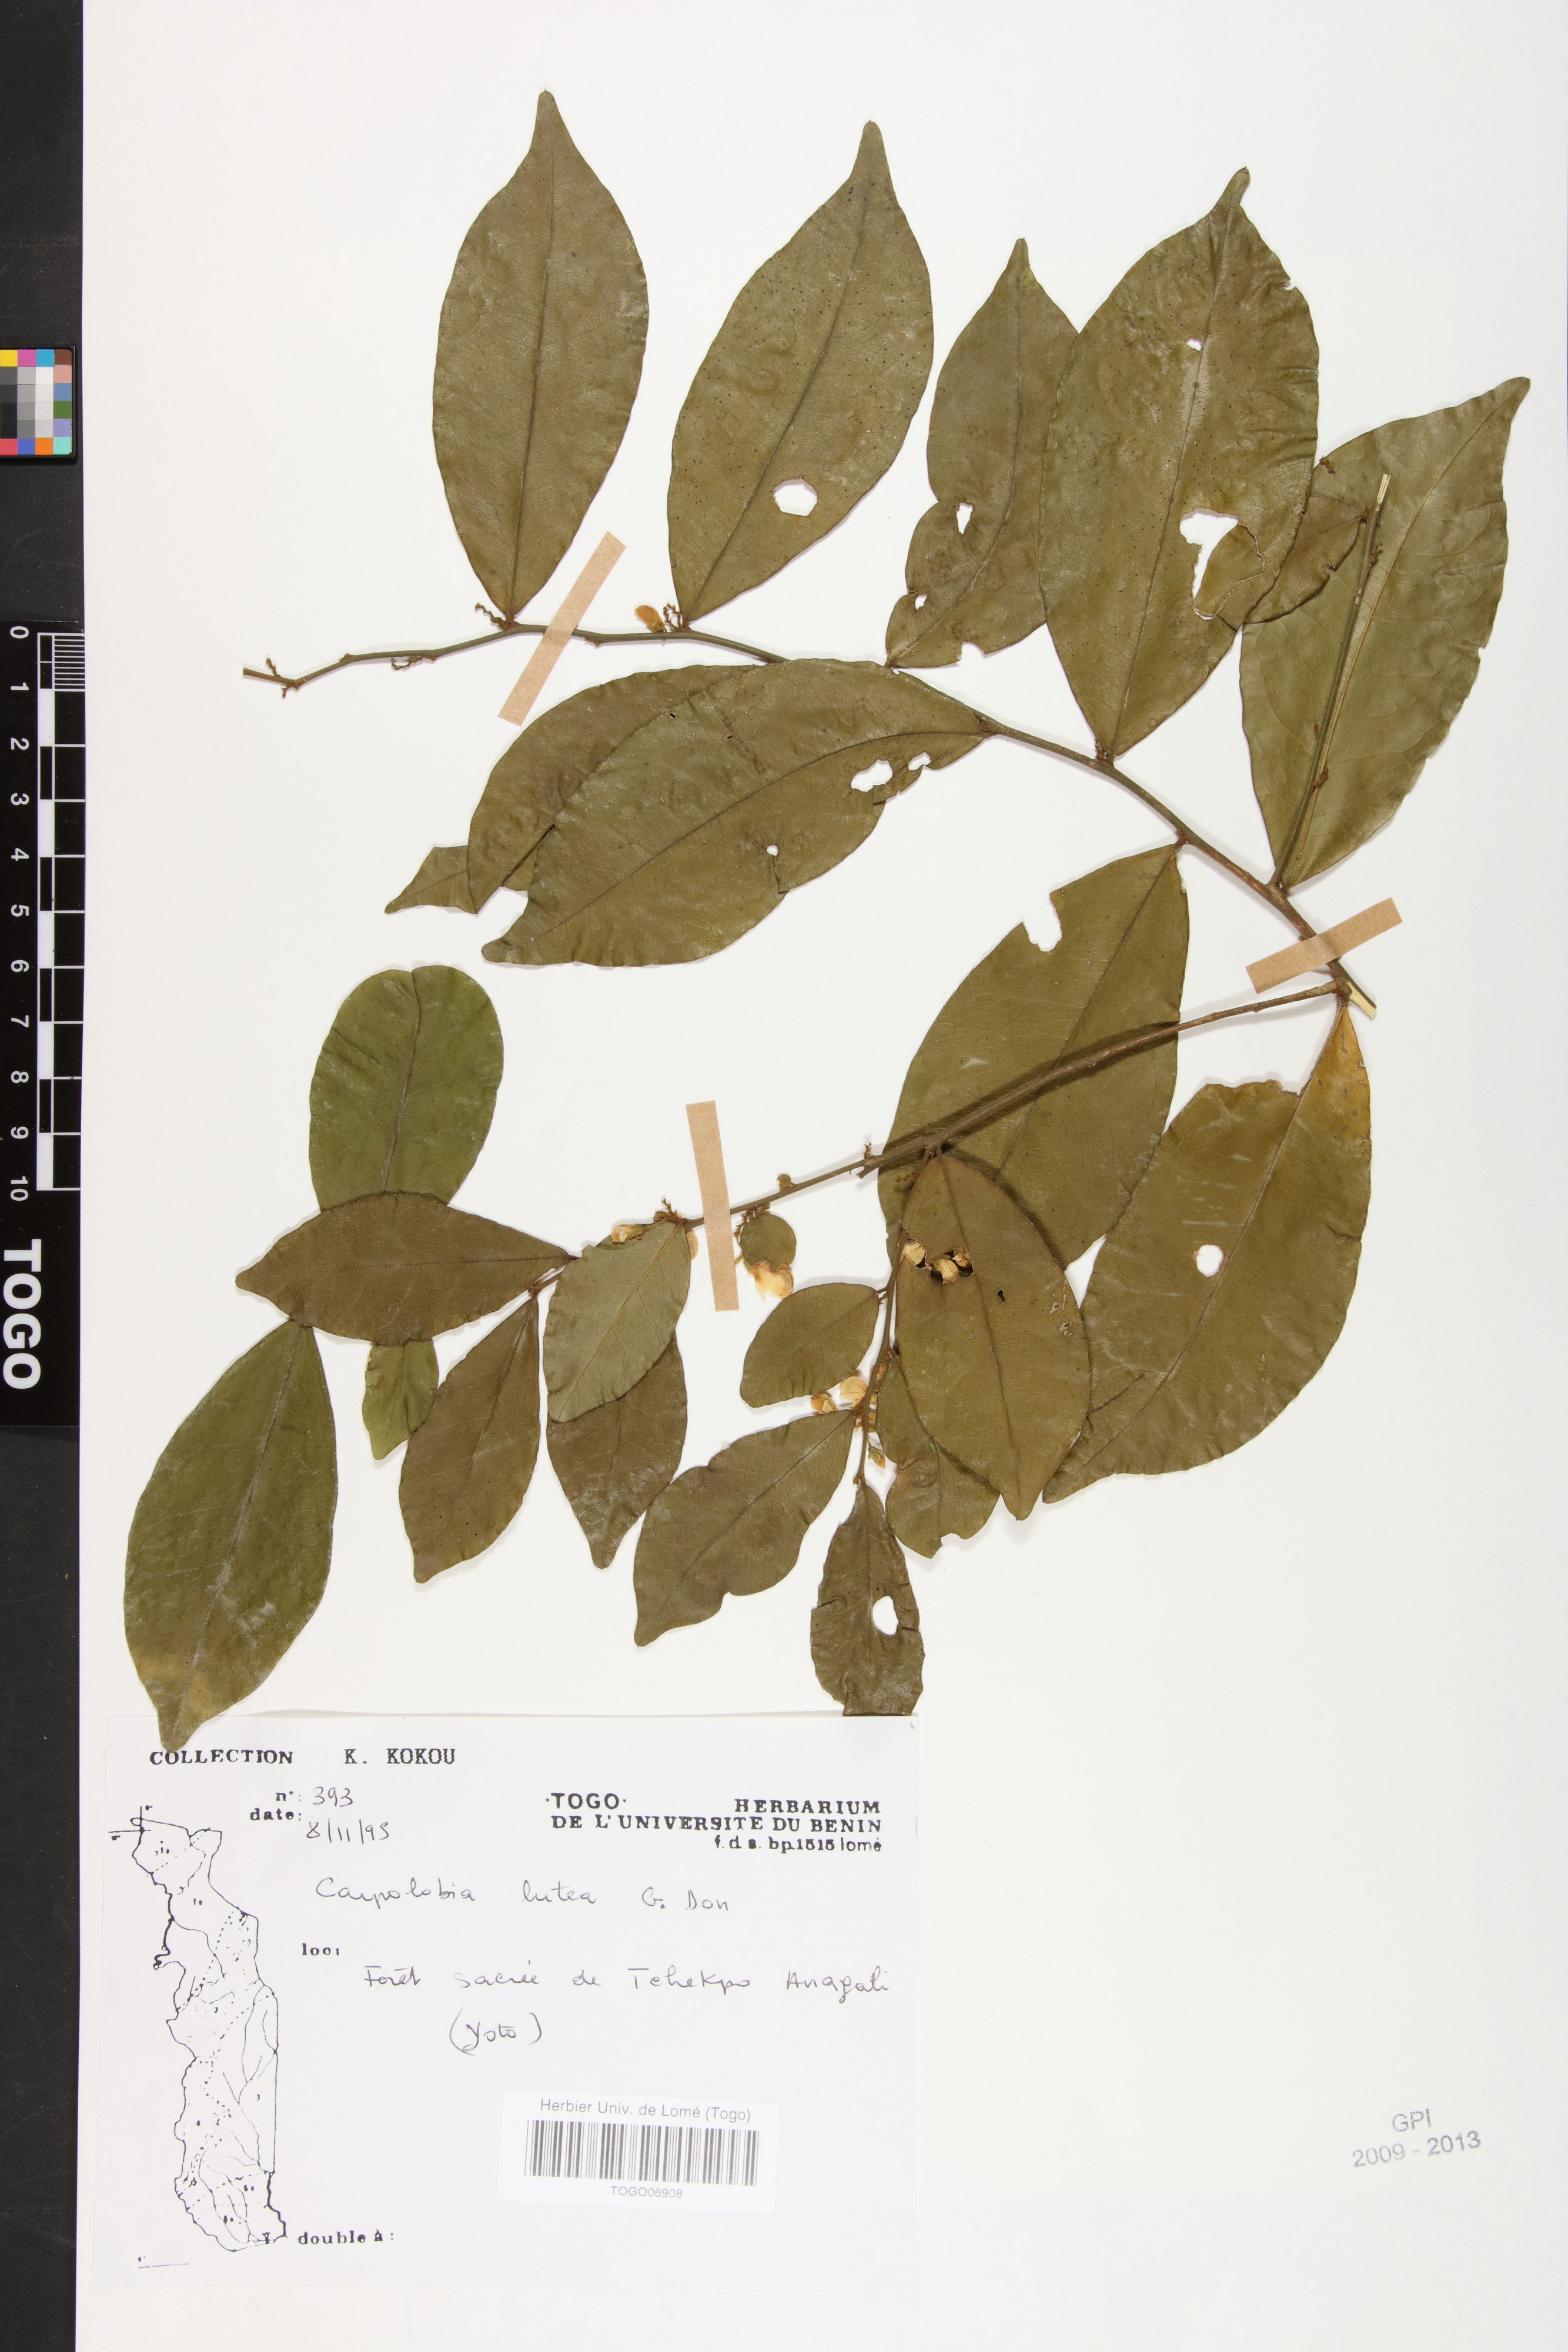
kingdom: Plantae
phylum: Tracheophyta
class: Magnoliopsida
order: Fabales
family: Polygalaceae
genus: Carpolobia
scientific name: Carpolobia lutea
